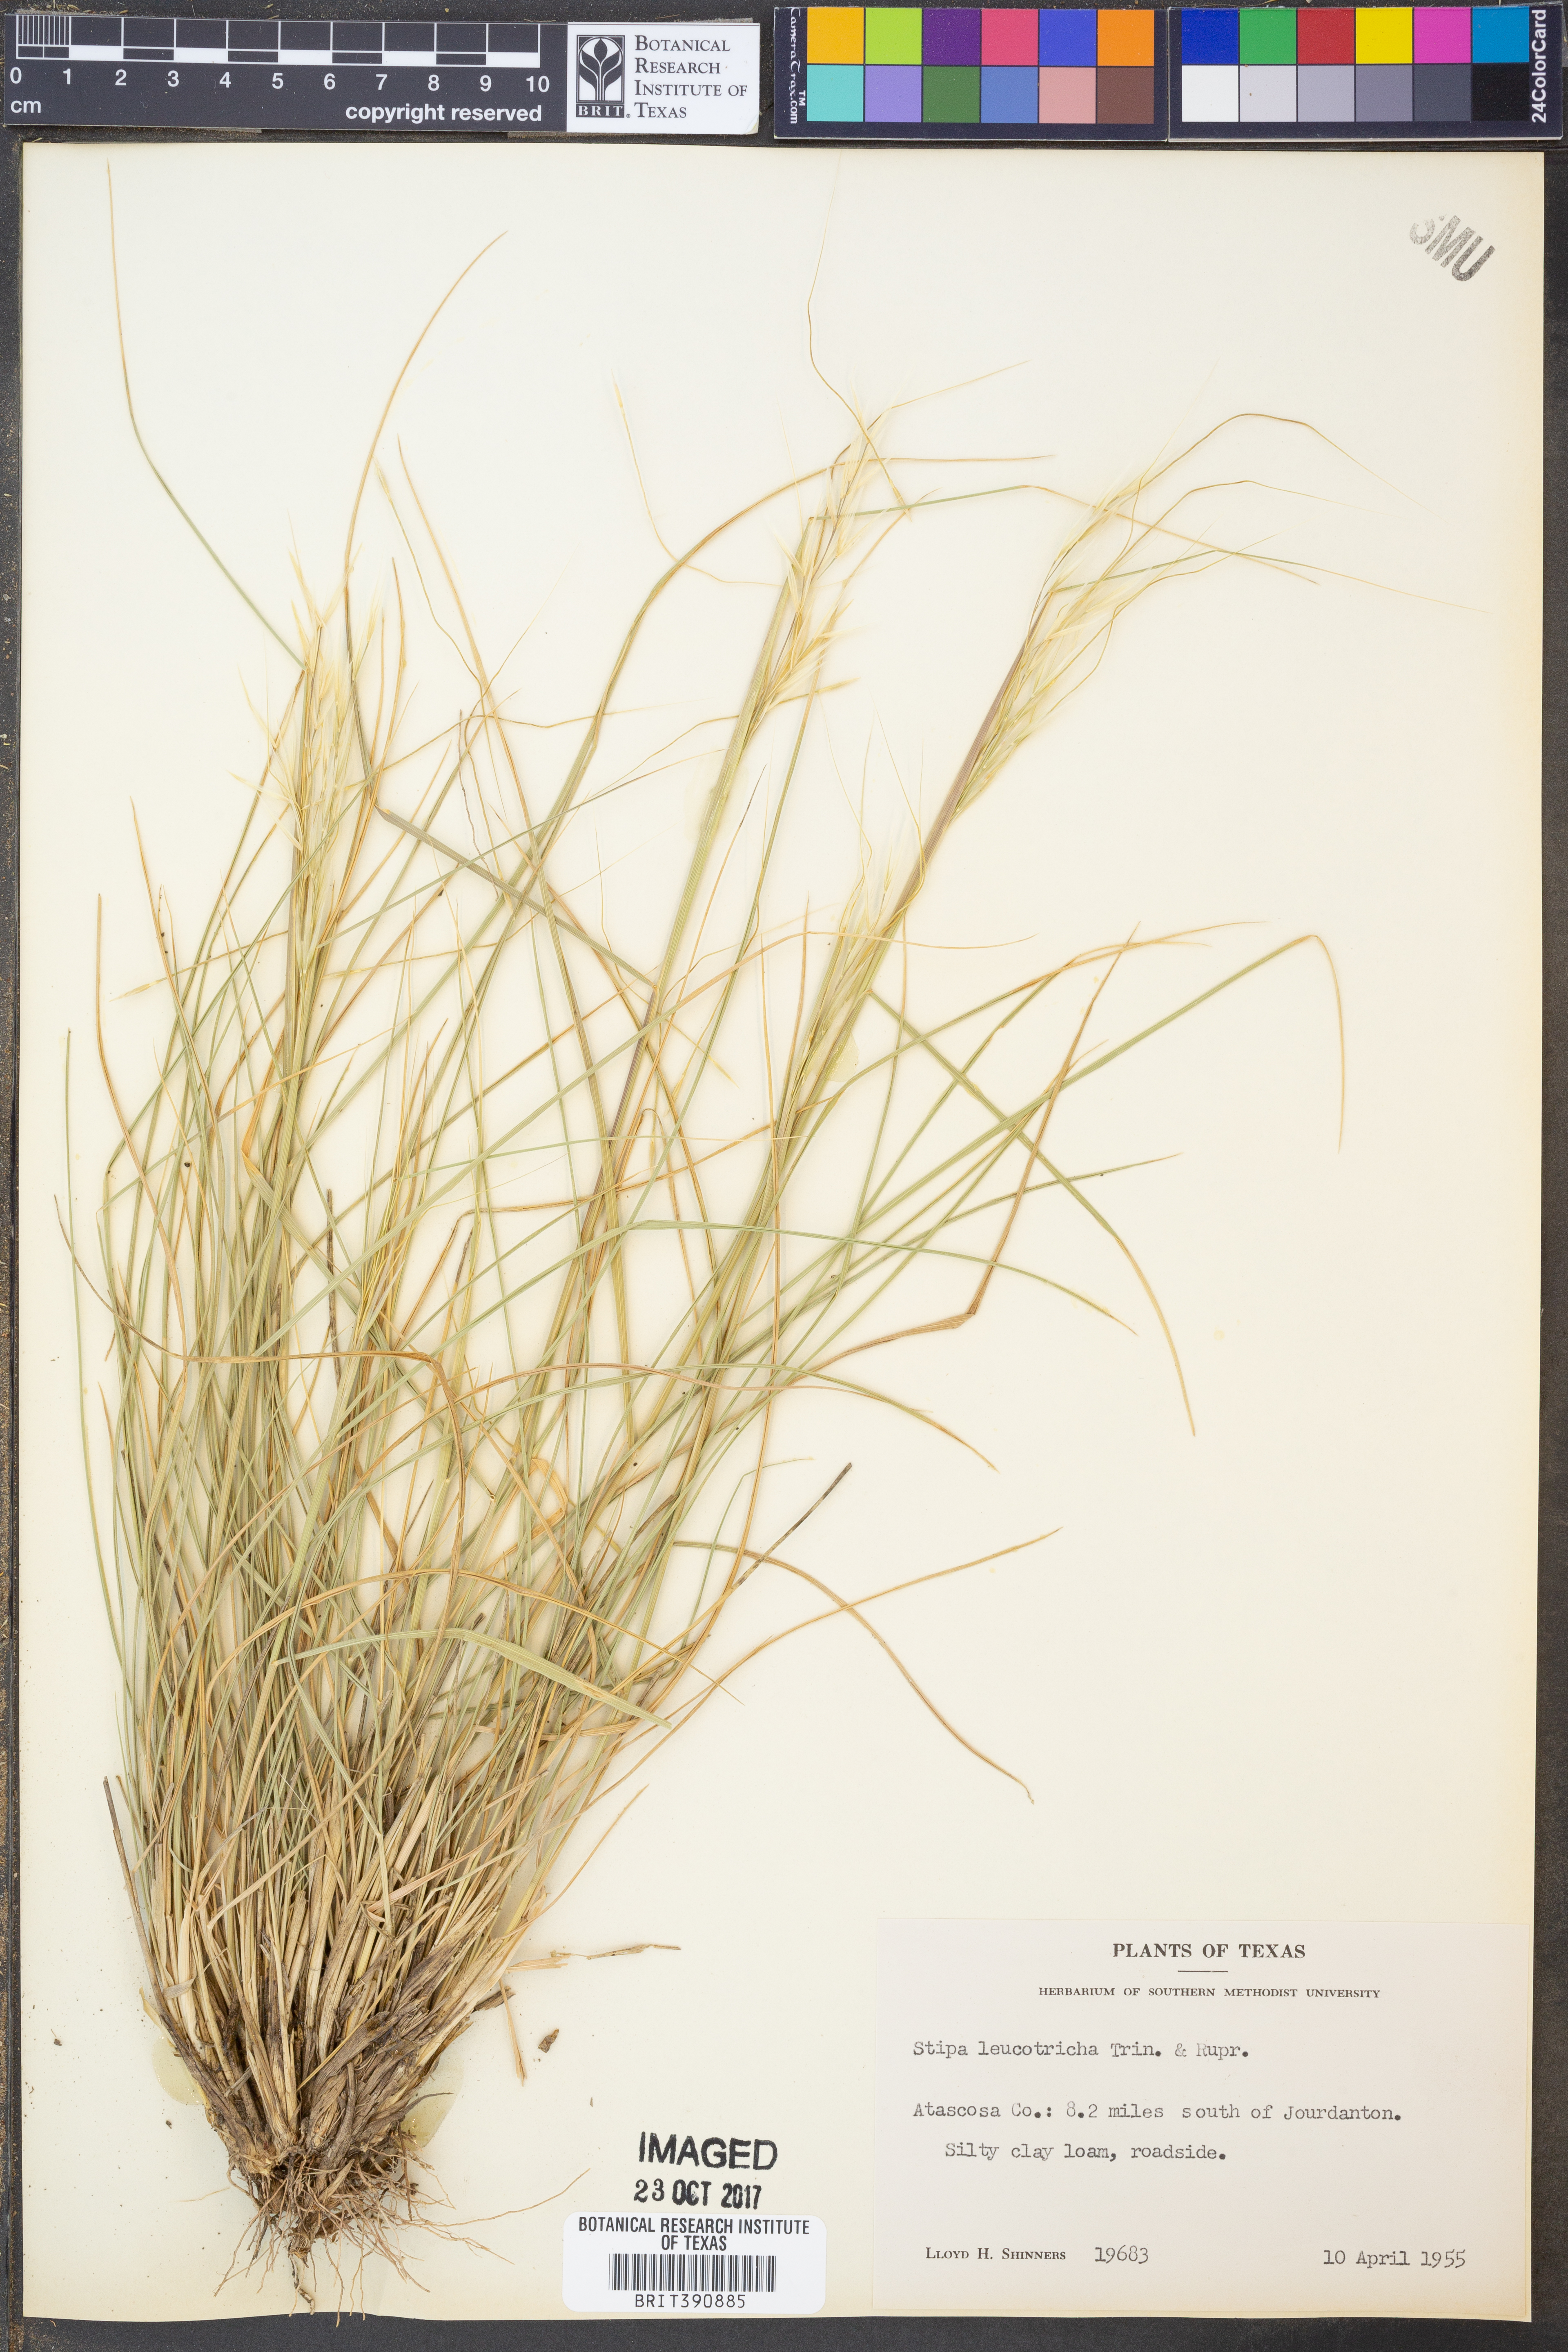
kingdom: Plantae
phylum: Tracheophyta
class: Liliopsida
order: Poales
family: Poaceae
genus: Nassella
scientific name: Nassella leucotricha
